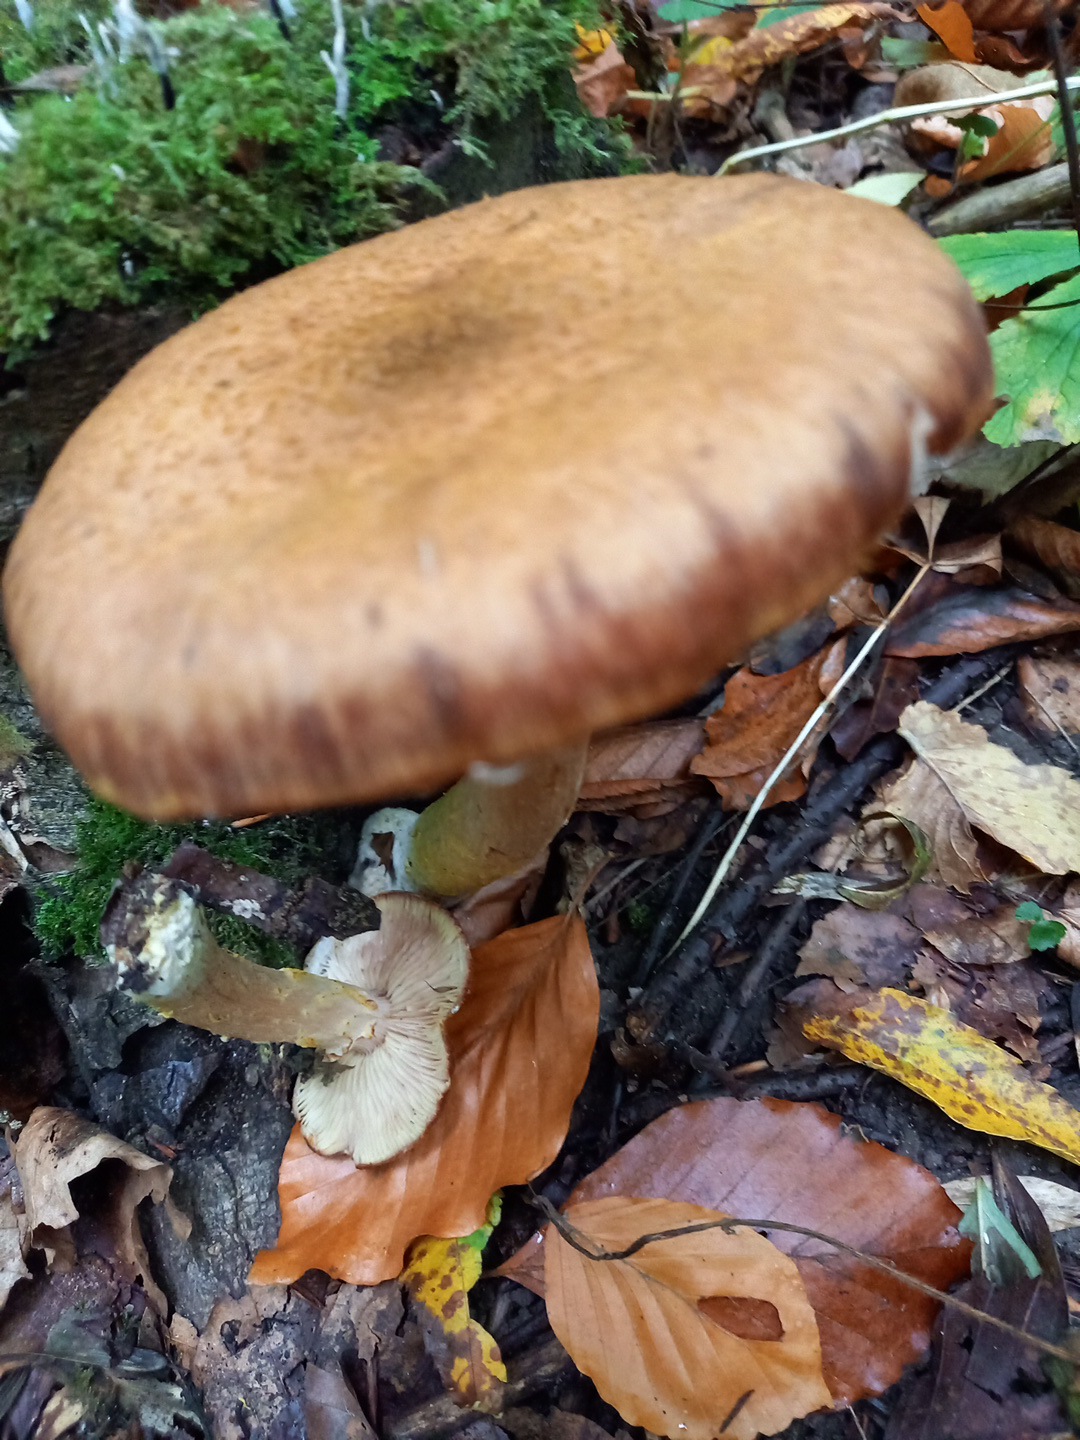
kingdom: Fungi
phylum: Basidiomycota
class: Agaricomycetes
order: Agaricales
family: Physalacriaceae
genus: Armillaria
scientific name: Armillaria lutea
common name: køllestokket honningsvamp
